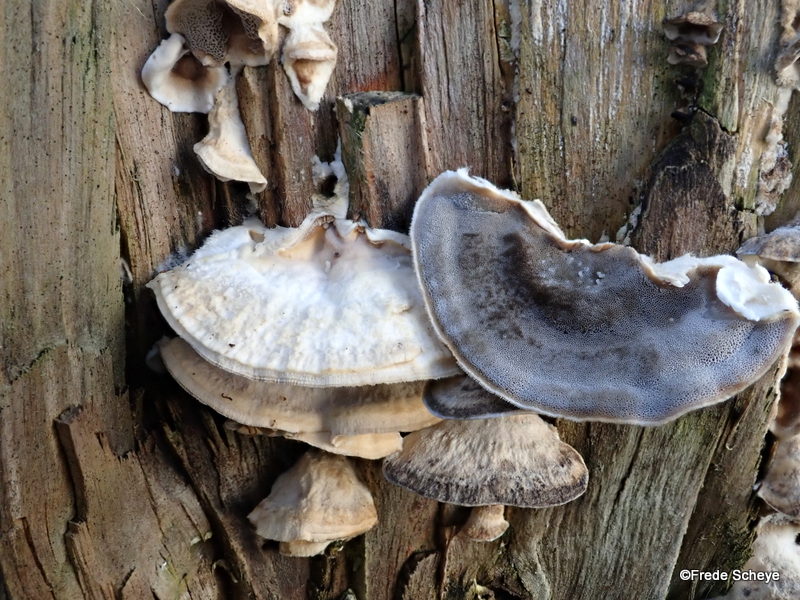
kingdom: Fungi
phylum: Basidiomycota
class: Agaricomycetes
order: Polyporales
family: Phanerochaetaceae
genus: Bjerkandera
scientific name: Bjerkandera adusta
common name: sveden sodporesvamp
